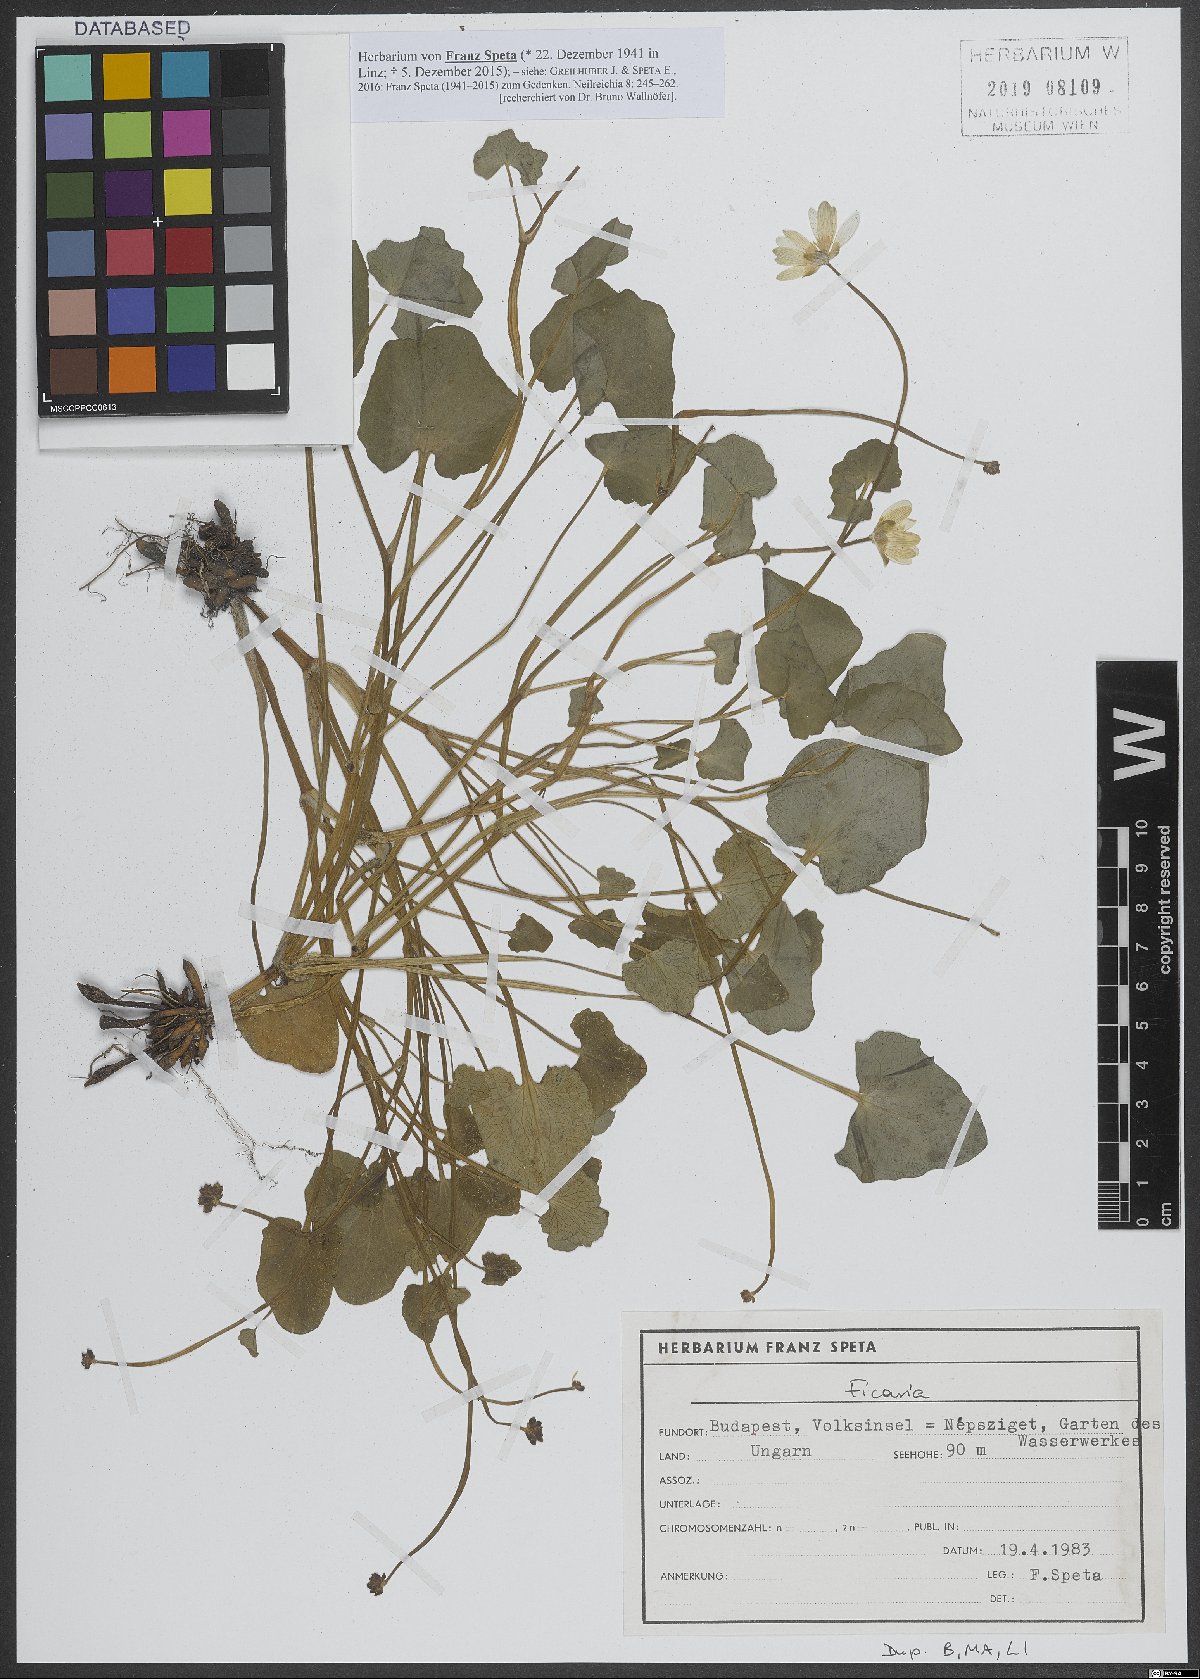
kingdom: Plantae
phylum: Tracheophyta
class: Magnoliopsida
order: Ranunculales
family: Ranunculaceae
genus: Ficaria
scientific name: Ficaria
